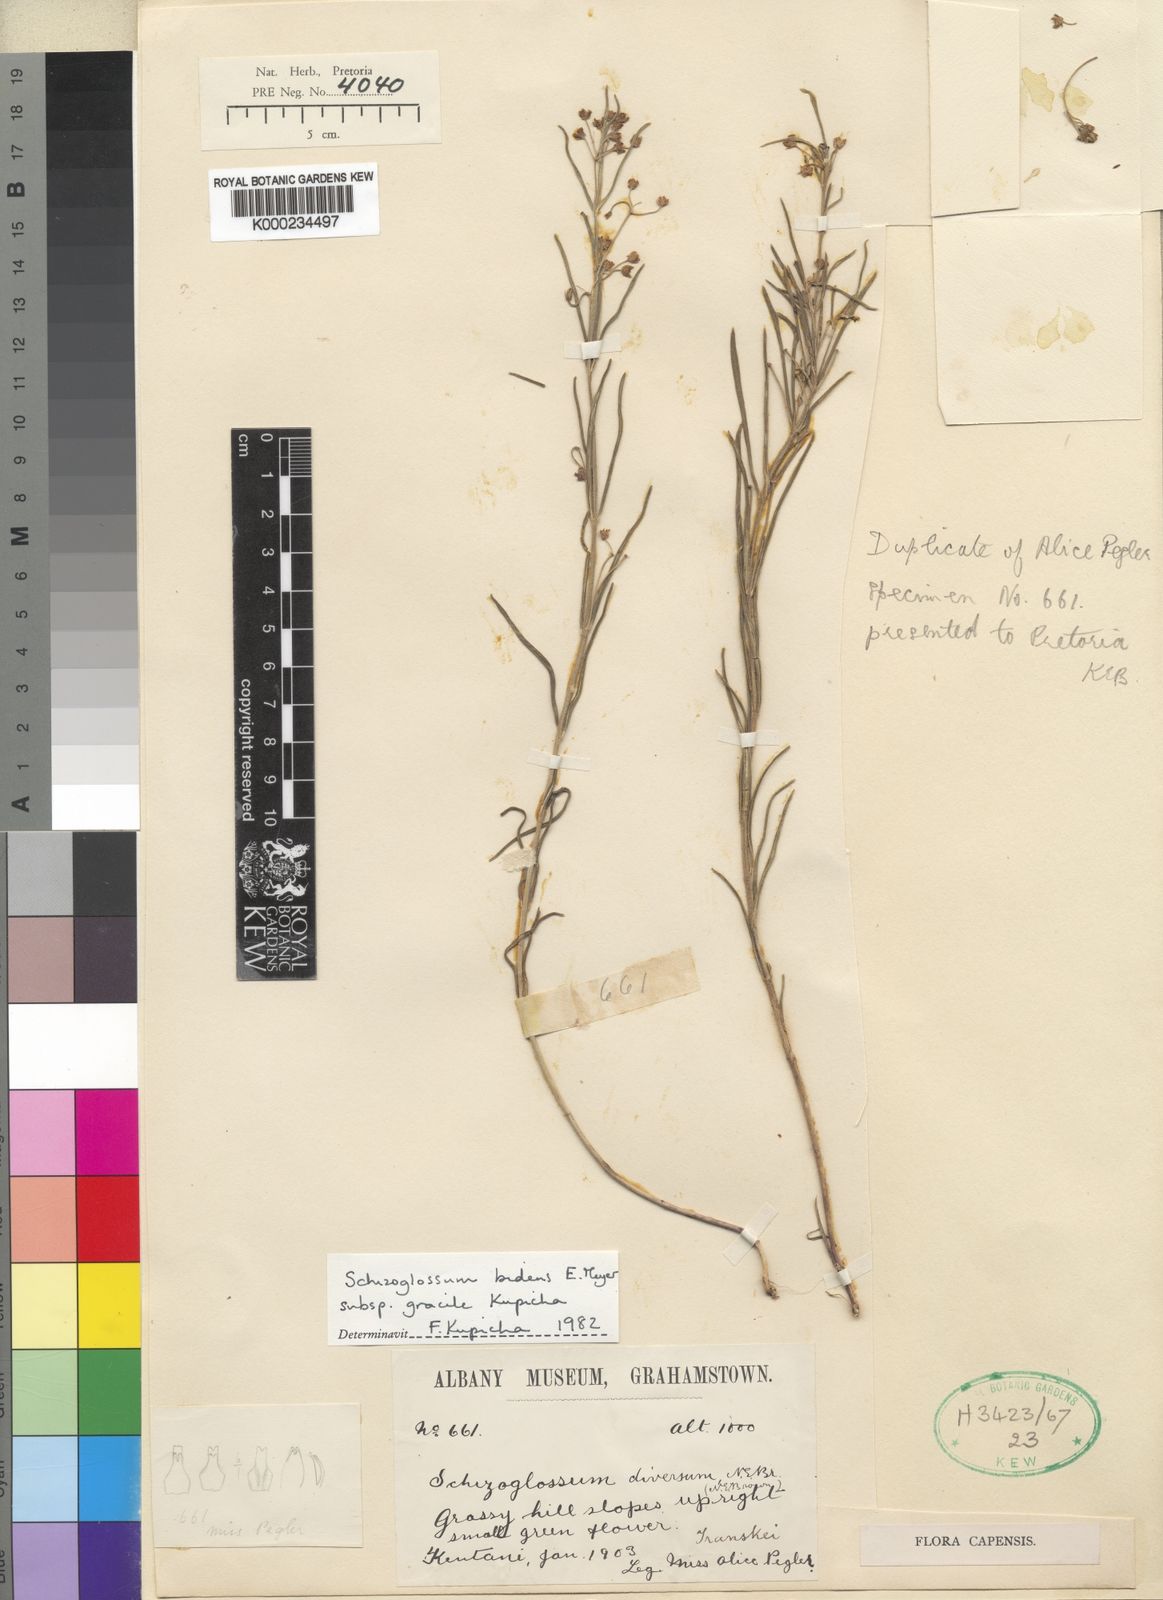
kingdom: Plantae
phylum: Tracheophyta
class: Magnoliopsida
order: Gentianales
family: Apocynaceae
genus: Schizoglossum
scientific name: Schizoglossum bidens
